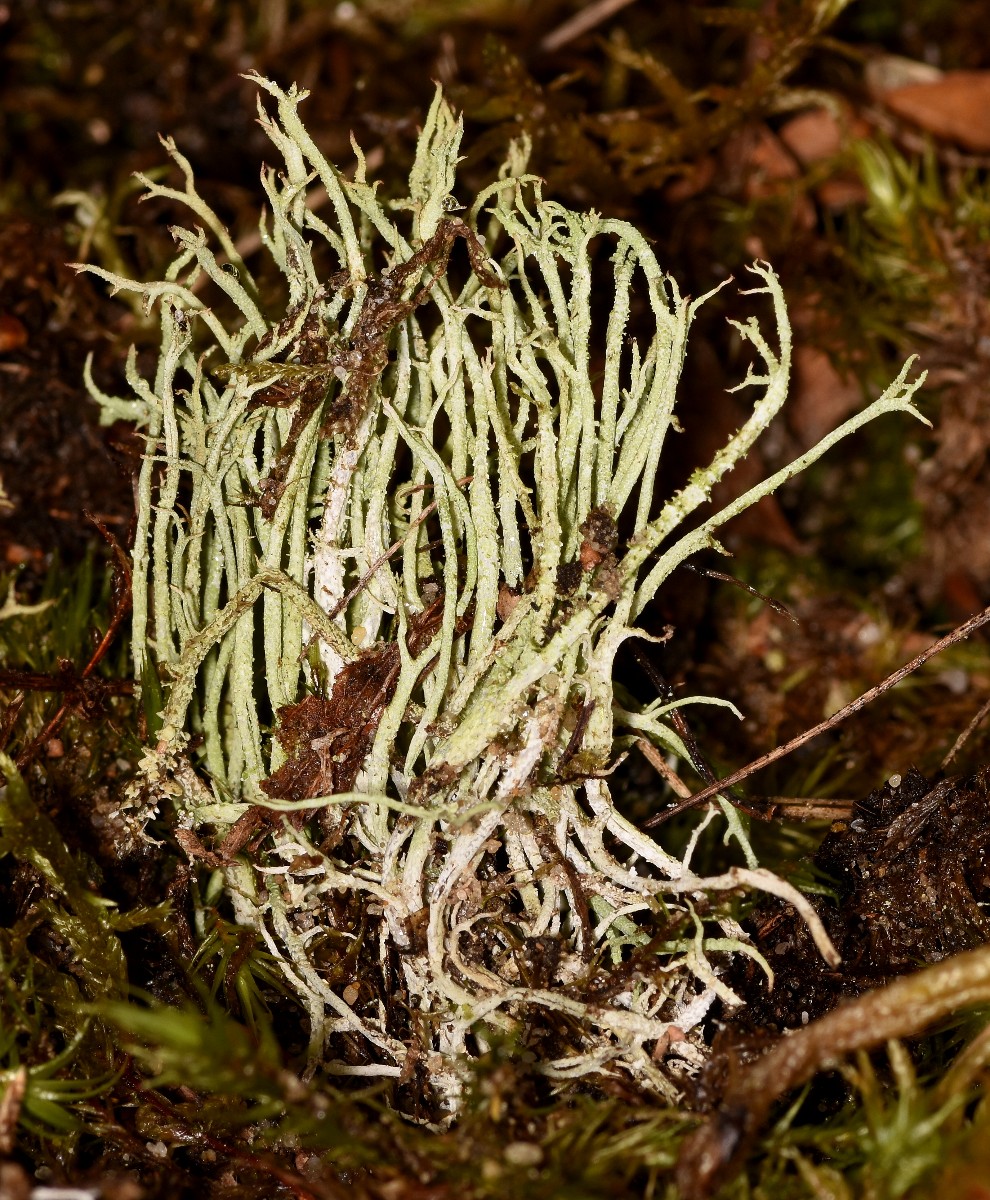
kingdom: Fungi
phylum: Ascomycota
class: Lecanoromycetes
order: Lecanorales
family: Cladoniaceae
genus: Cladonia
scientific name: Cladonia scabriuscula
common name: ru bægerlav
